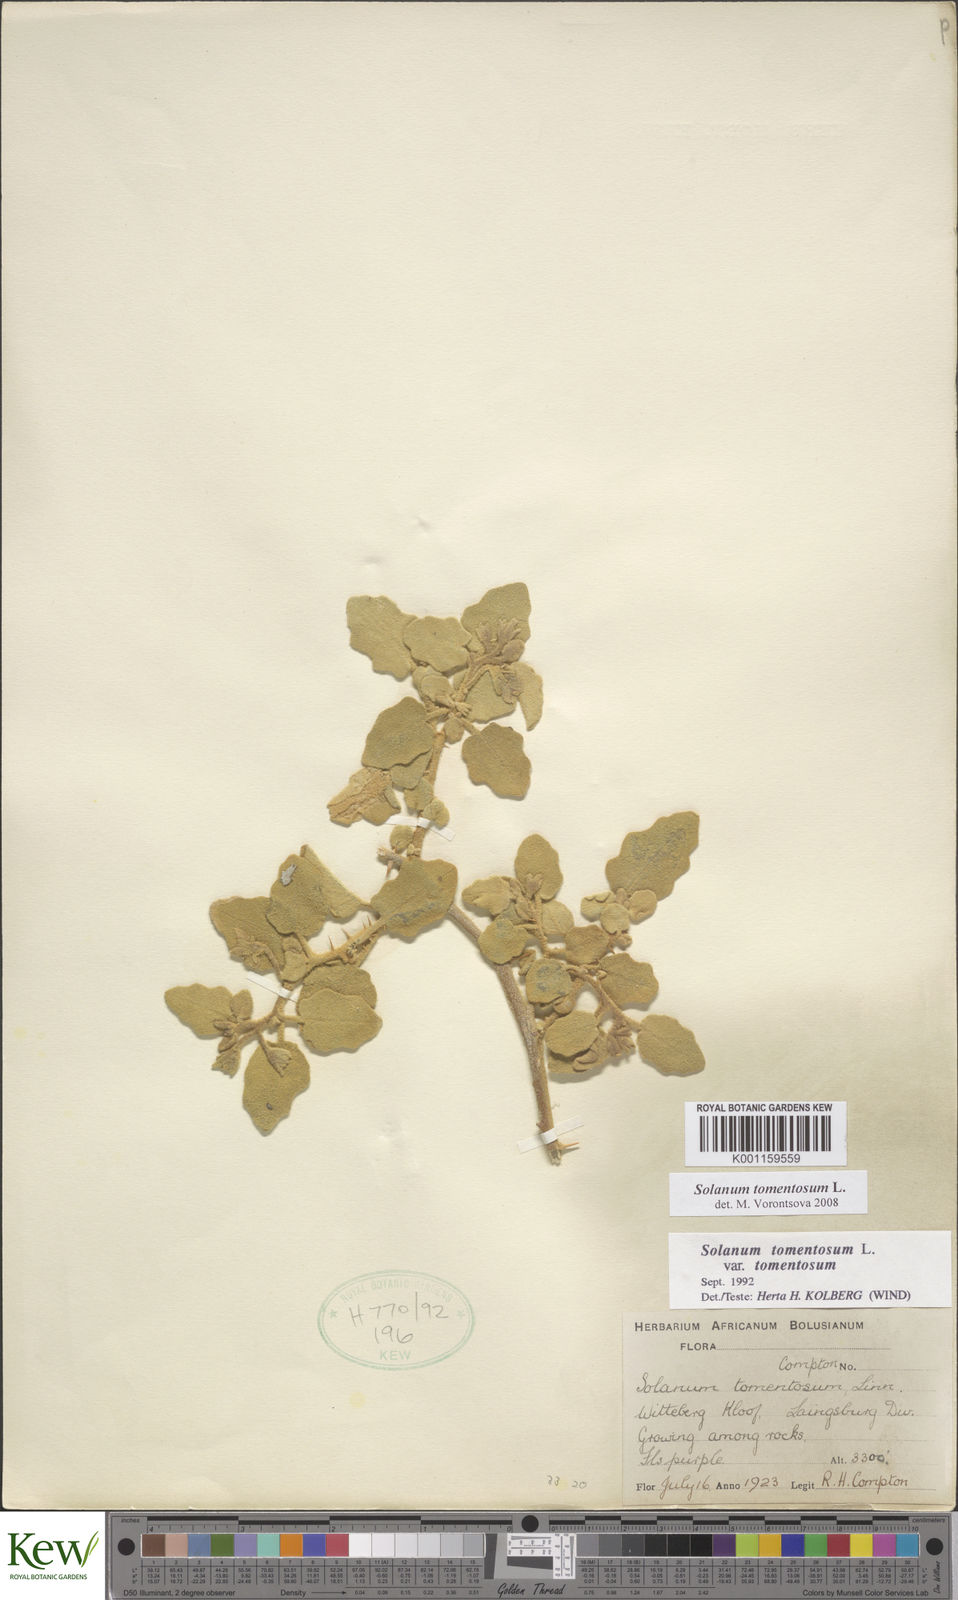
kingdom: Plantae
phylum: Tracheophyta
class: Magnoliopsida
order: Solanales
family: Solanaceae
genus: Solanum
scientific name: Solanum tomentosum
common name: Wild aubergine
